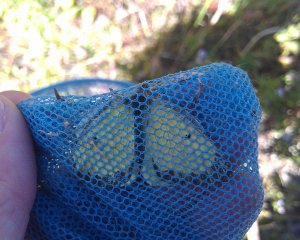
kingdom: Animalia
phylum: Arthropoda
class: Insecta
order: Lepidoptera
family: Pieridae
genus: Colias
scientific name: Colias philodice
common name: Clouded Sulphur
